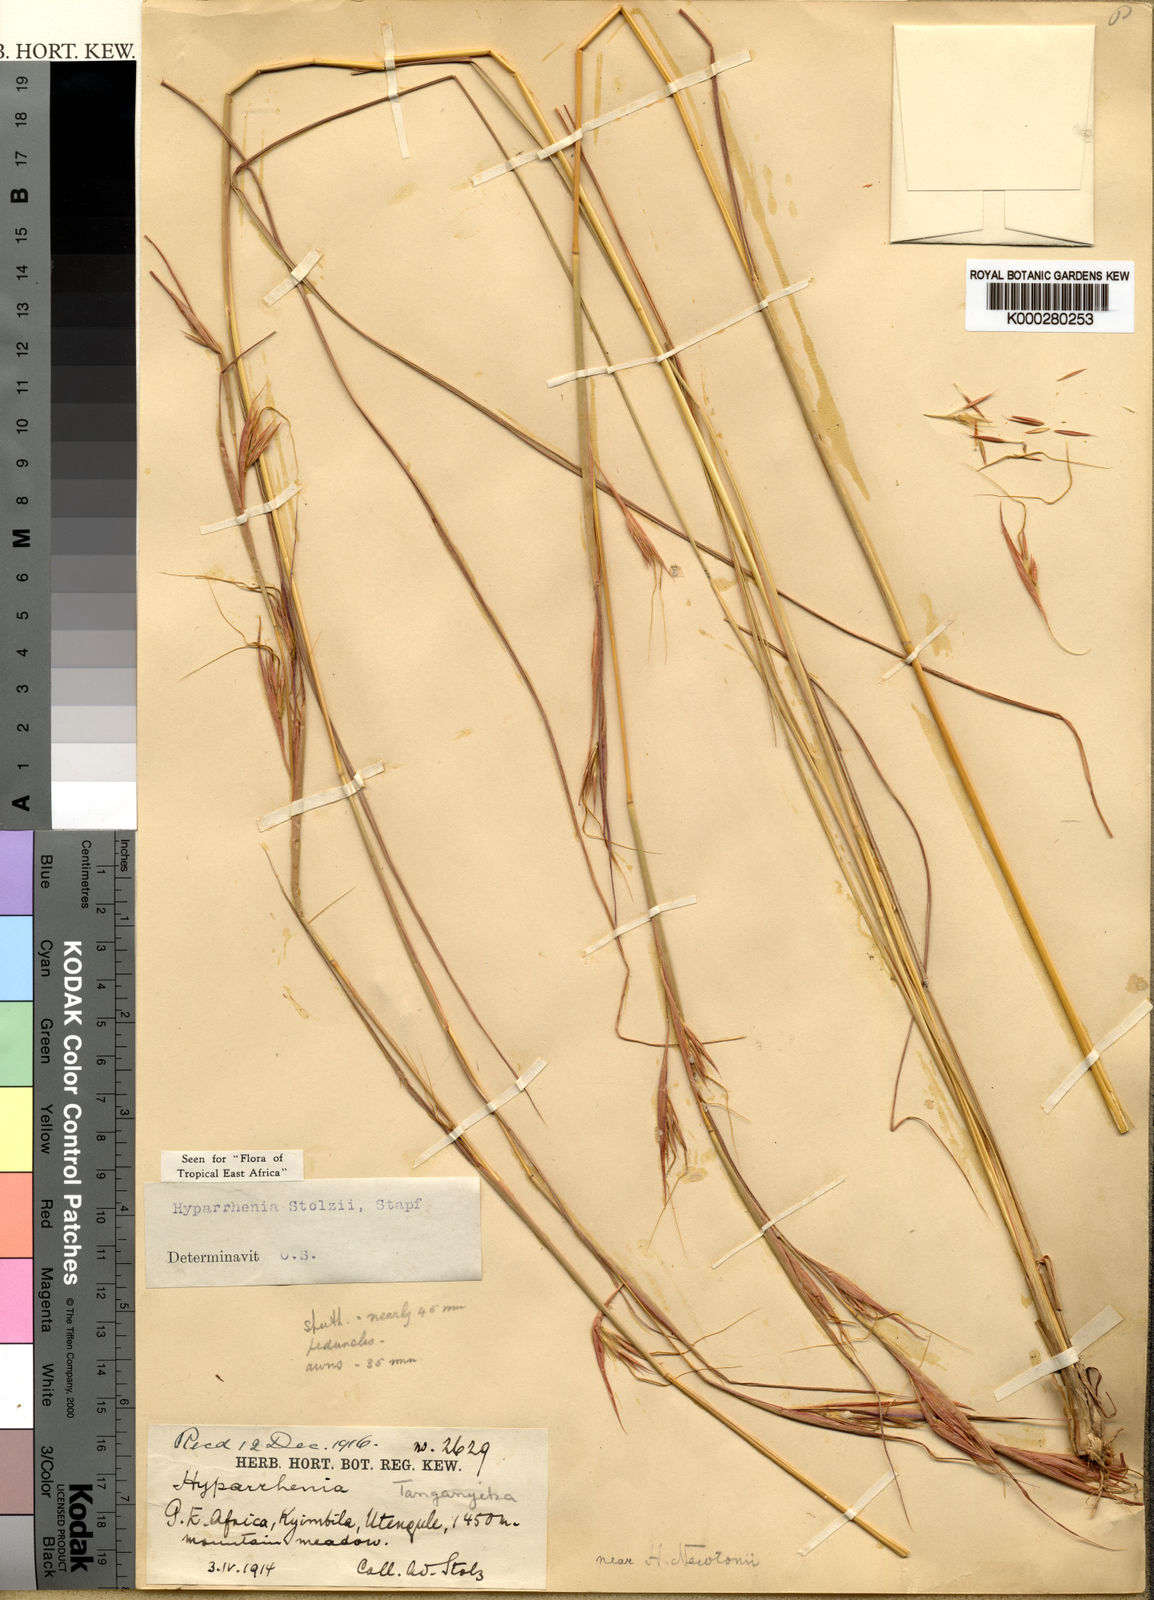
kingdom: Plantae
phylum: Tracheophyta
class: Liliopsida
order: Poales
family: Poaceae
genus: Hyparrhenia
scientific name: Hyparrhenia newtonii
